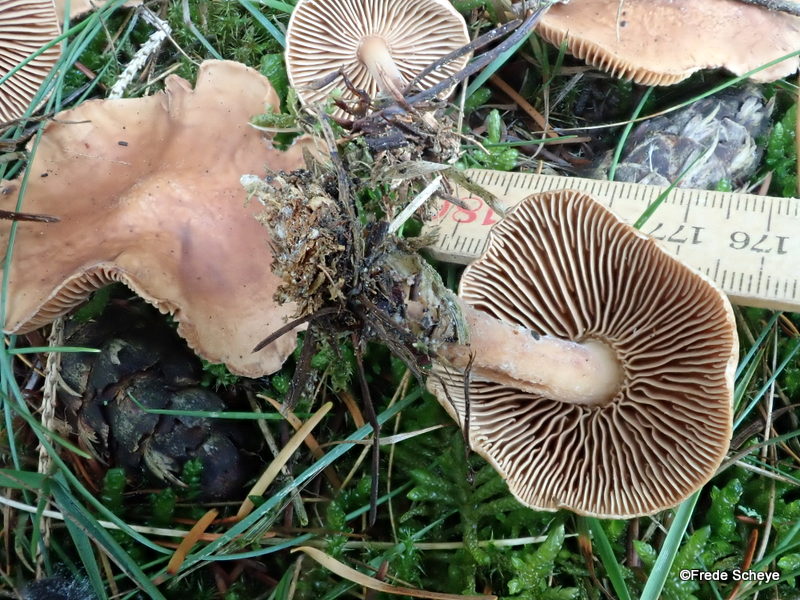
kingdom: Fungi
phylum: Basidiomycota
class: Agaricomycetes
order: Agaricales
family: Omphalotaceae
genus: Collybiopsis
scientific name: Collybiopsis peronata
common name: bestøvlet fladhat
